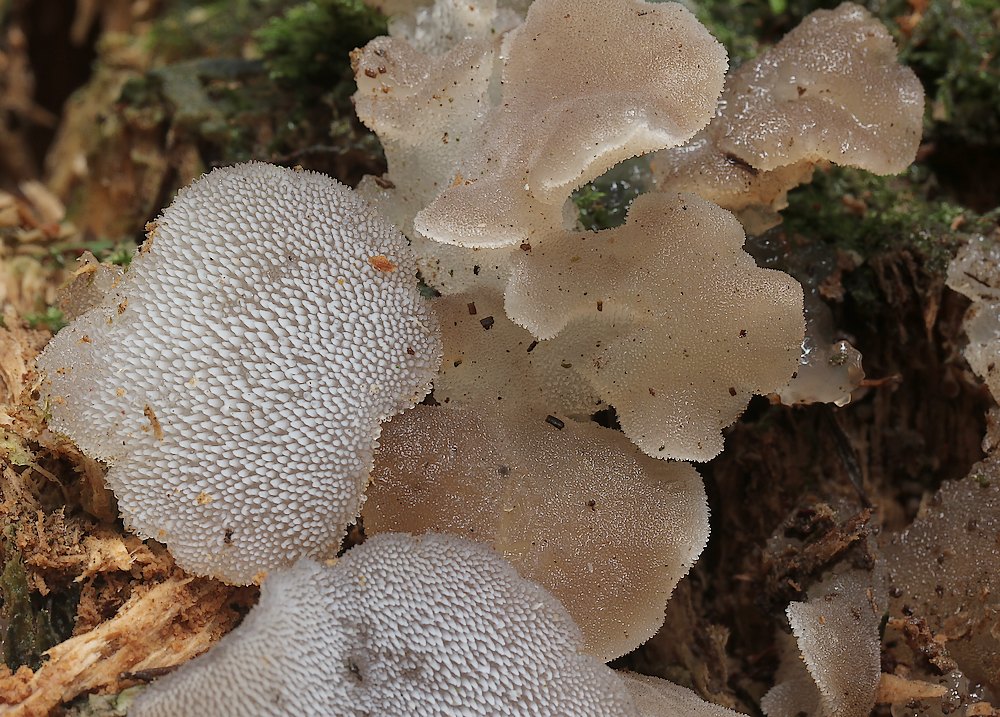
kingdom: Fungi
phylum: Basidiomycota
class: Agaricomycetes
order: Auriculariales
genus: Pseudohydnum
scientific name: Pseudohydnum gelatinosum
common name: bævretand
